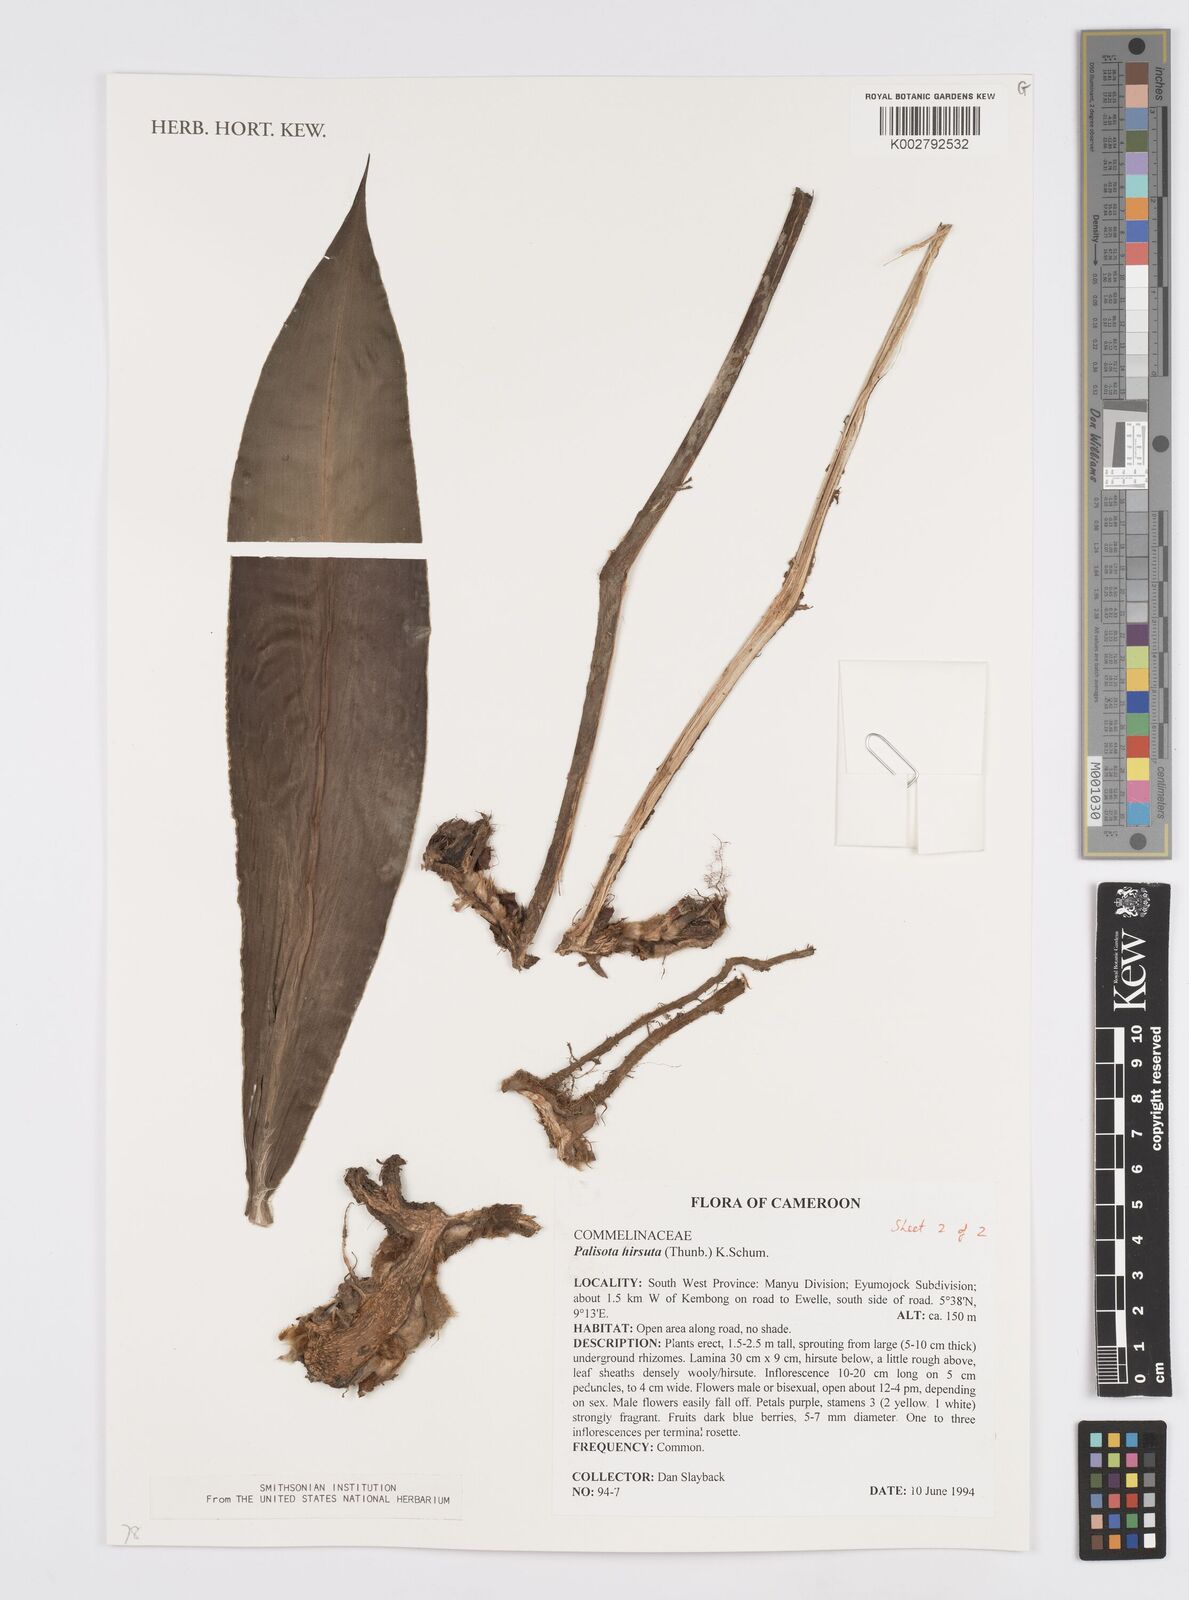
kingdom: Plantae
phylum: Tracheophyta
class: Liliopsida
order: Commelinales
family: Commelinaceae
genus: Palisota
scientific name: Palisota hirsuta
